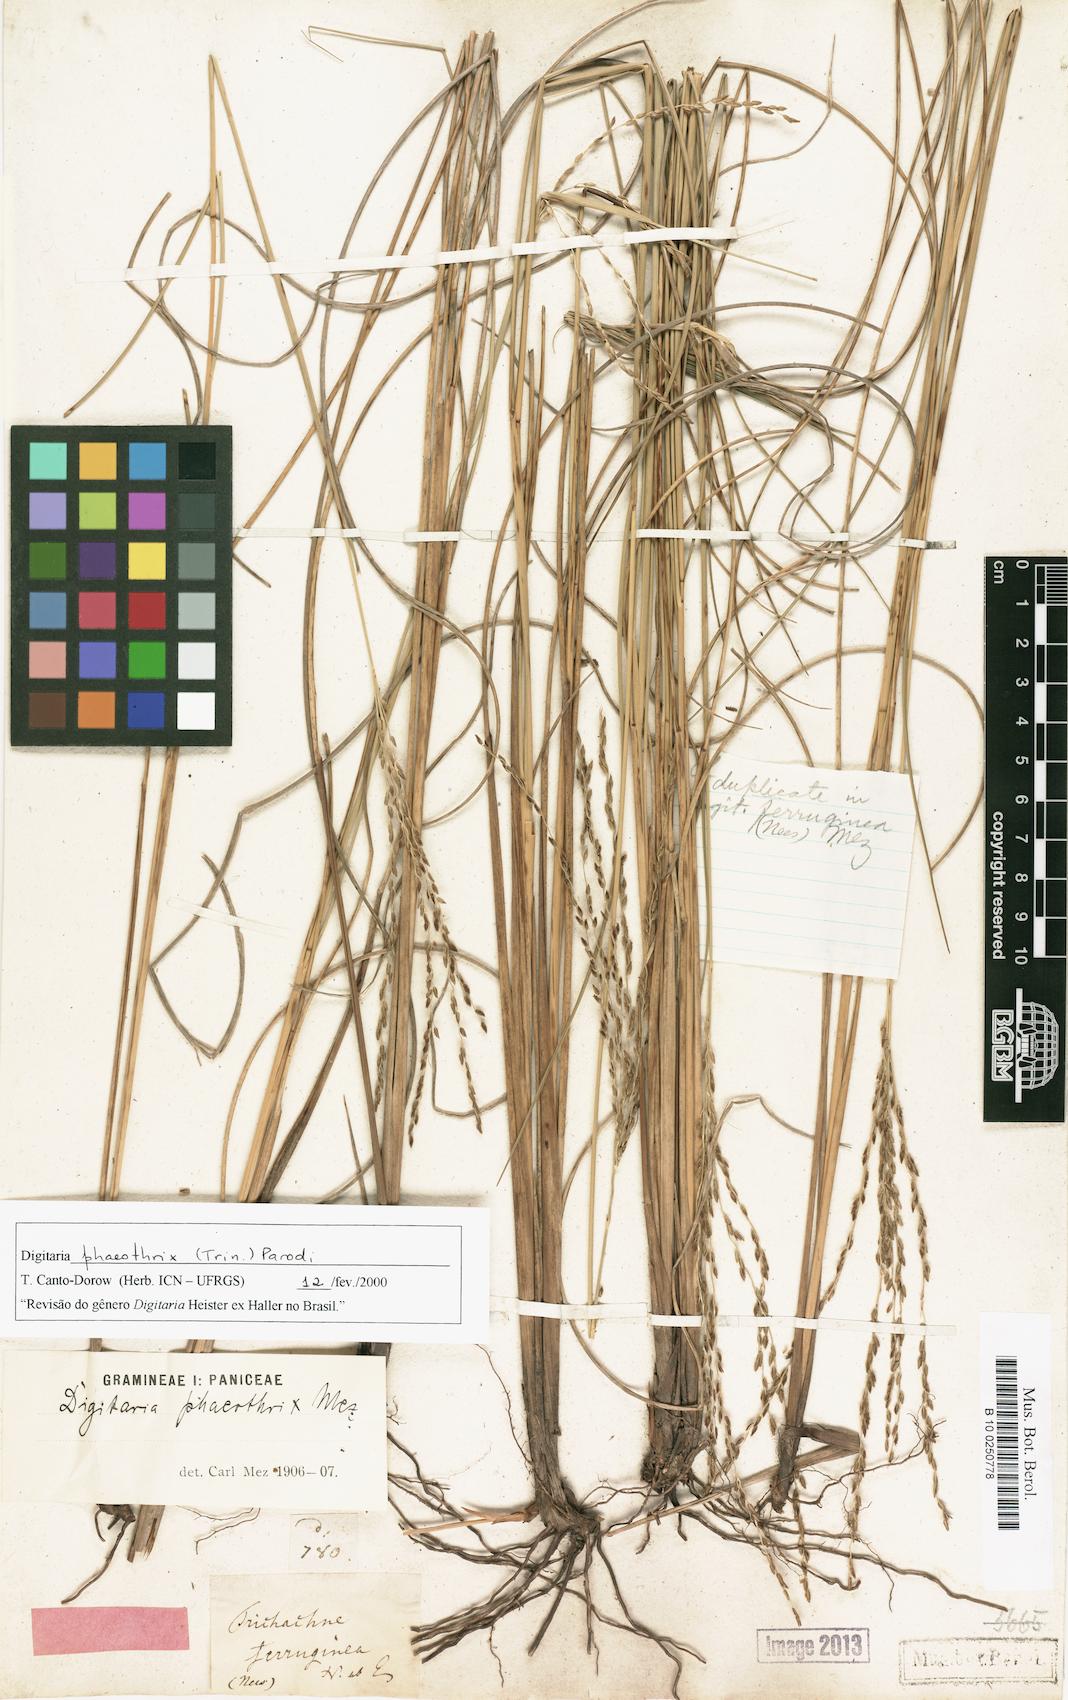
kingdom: Plantae
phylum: Tracheophyta
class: Liliopsida
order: Poales
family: Poaceae
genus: Digitaria
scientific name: Digitaria phaeothrix
